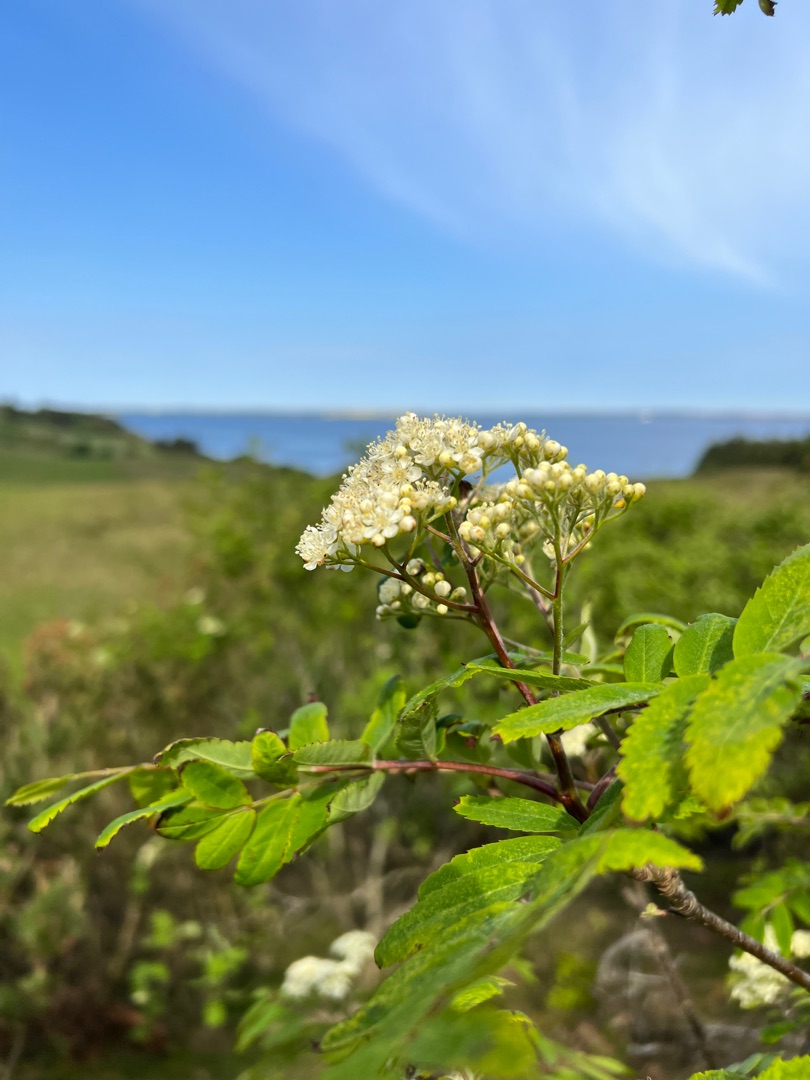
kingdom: Plantae
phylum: Tracheophyta
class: Magnoliopsida
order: Rosales
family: Rosaceae
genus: Sorbus
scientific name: Sorbus aucuparia
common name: Almindelig røn
